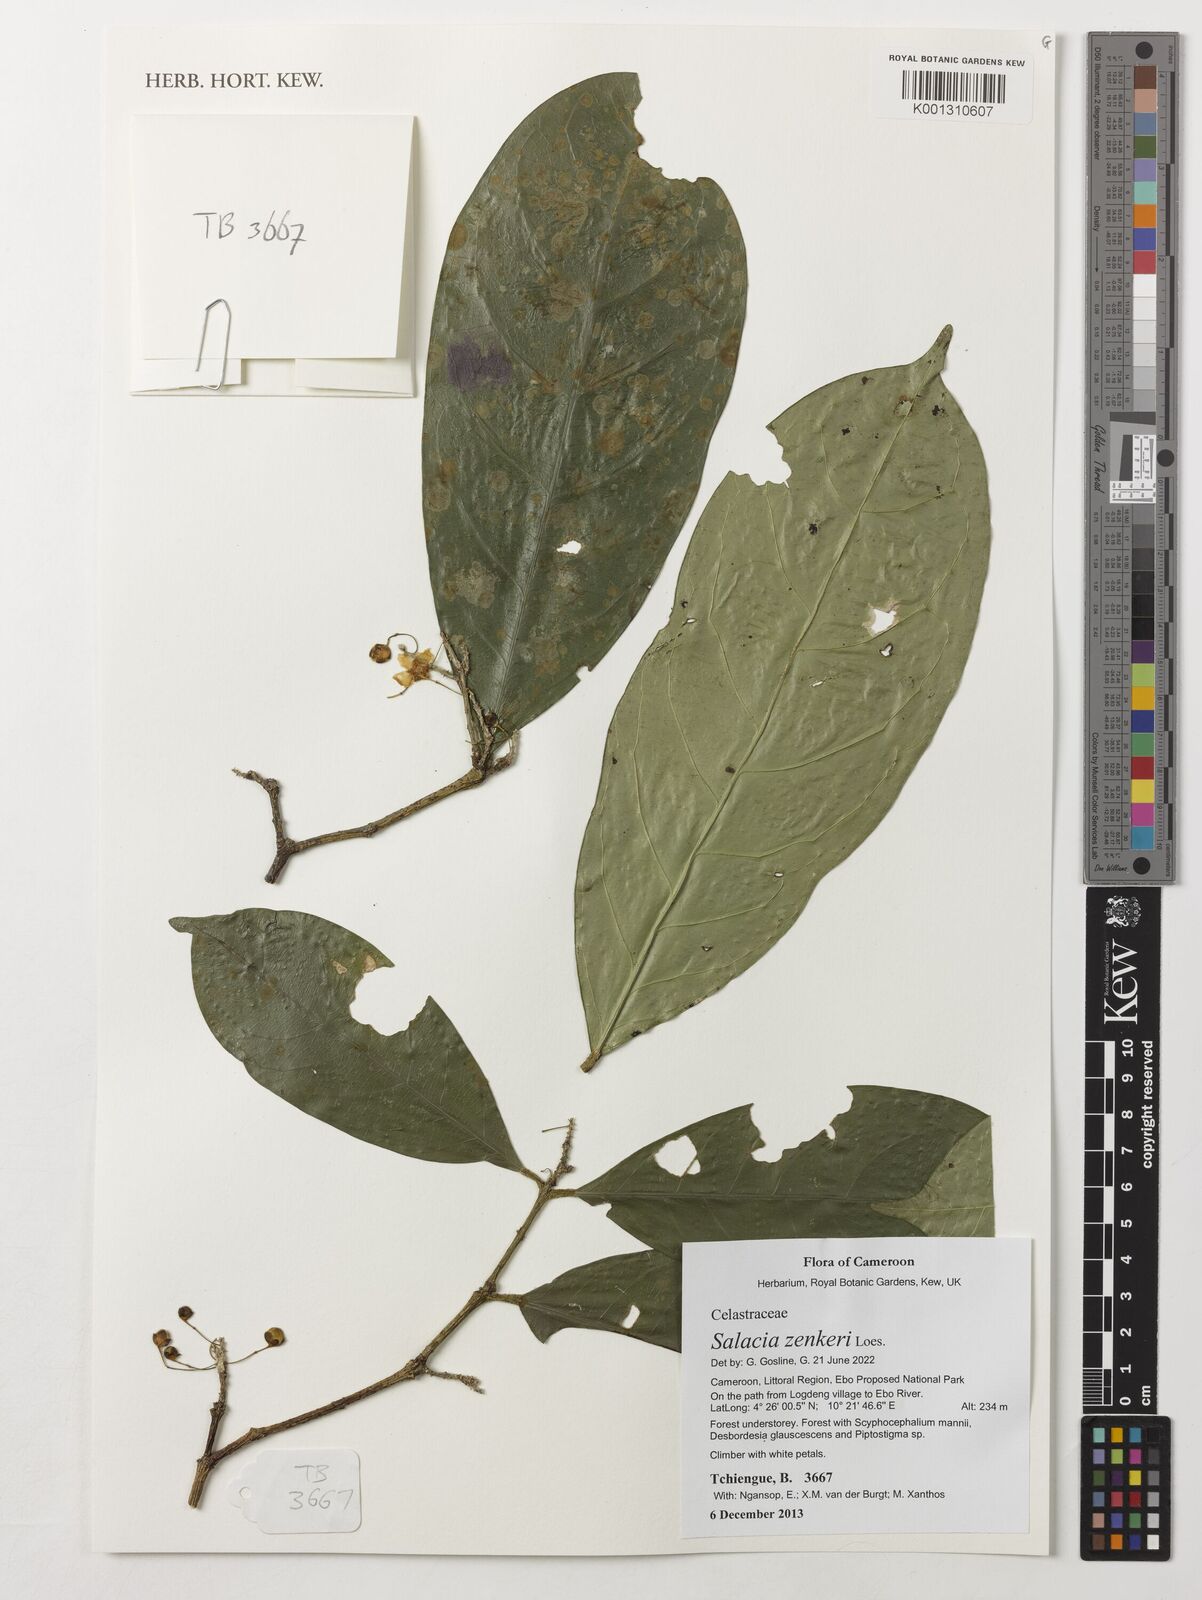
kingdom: Plantae
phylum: Tracheophyta
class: Magnoliopsida
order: Celastrales
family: Celastraceae
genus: Salacia
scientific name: Salacia zenkeri
